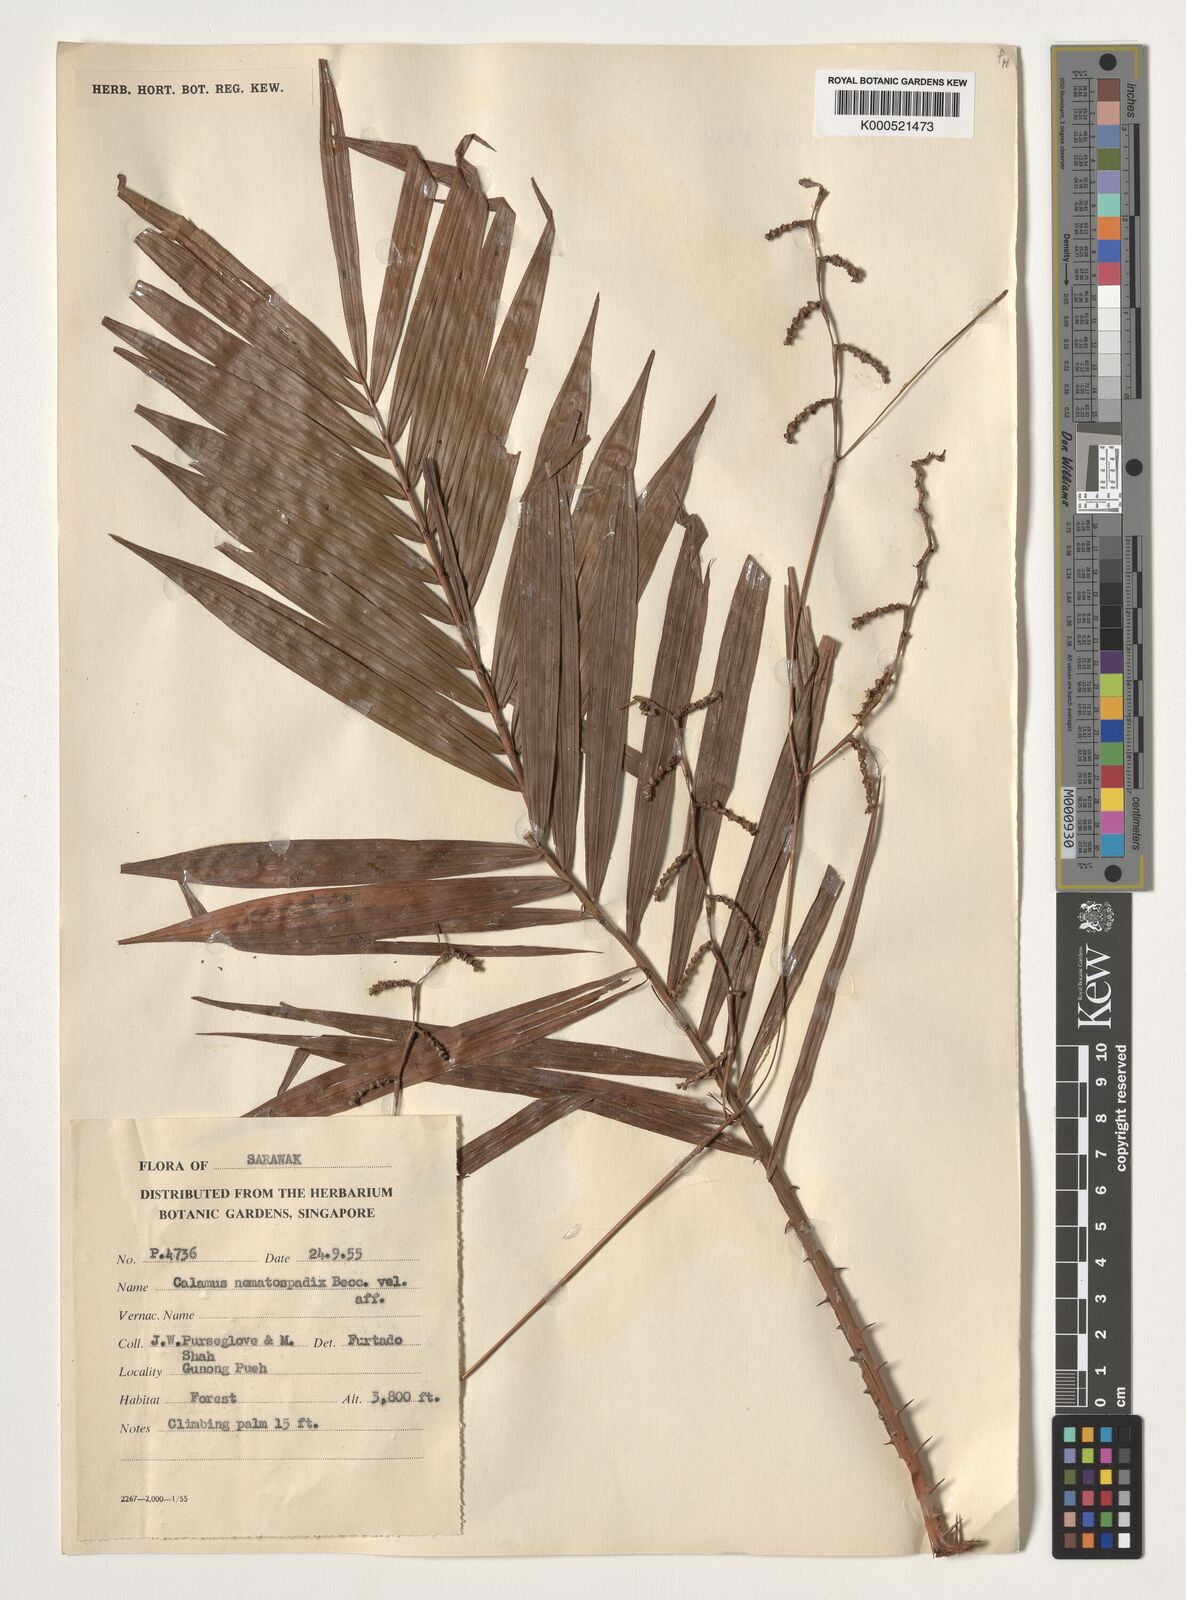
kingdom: Plantae
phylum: Tracheophyta
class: Liliopsida
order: Arecales
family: Arecaceae
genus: Calamus
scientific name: Calamus nematospadix
